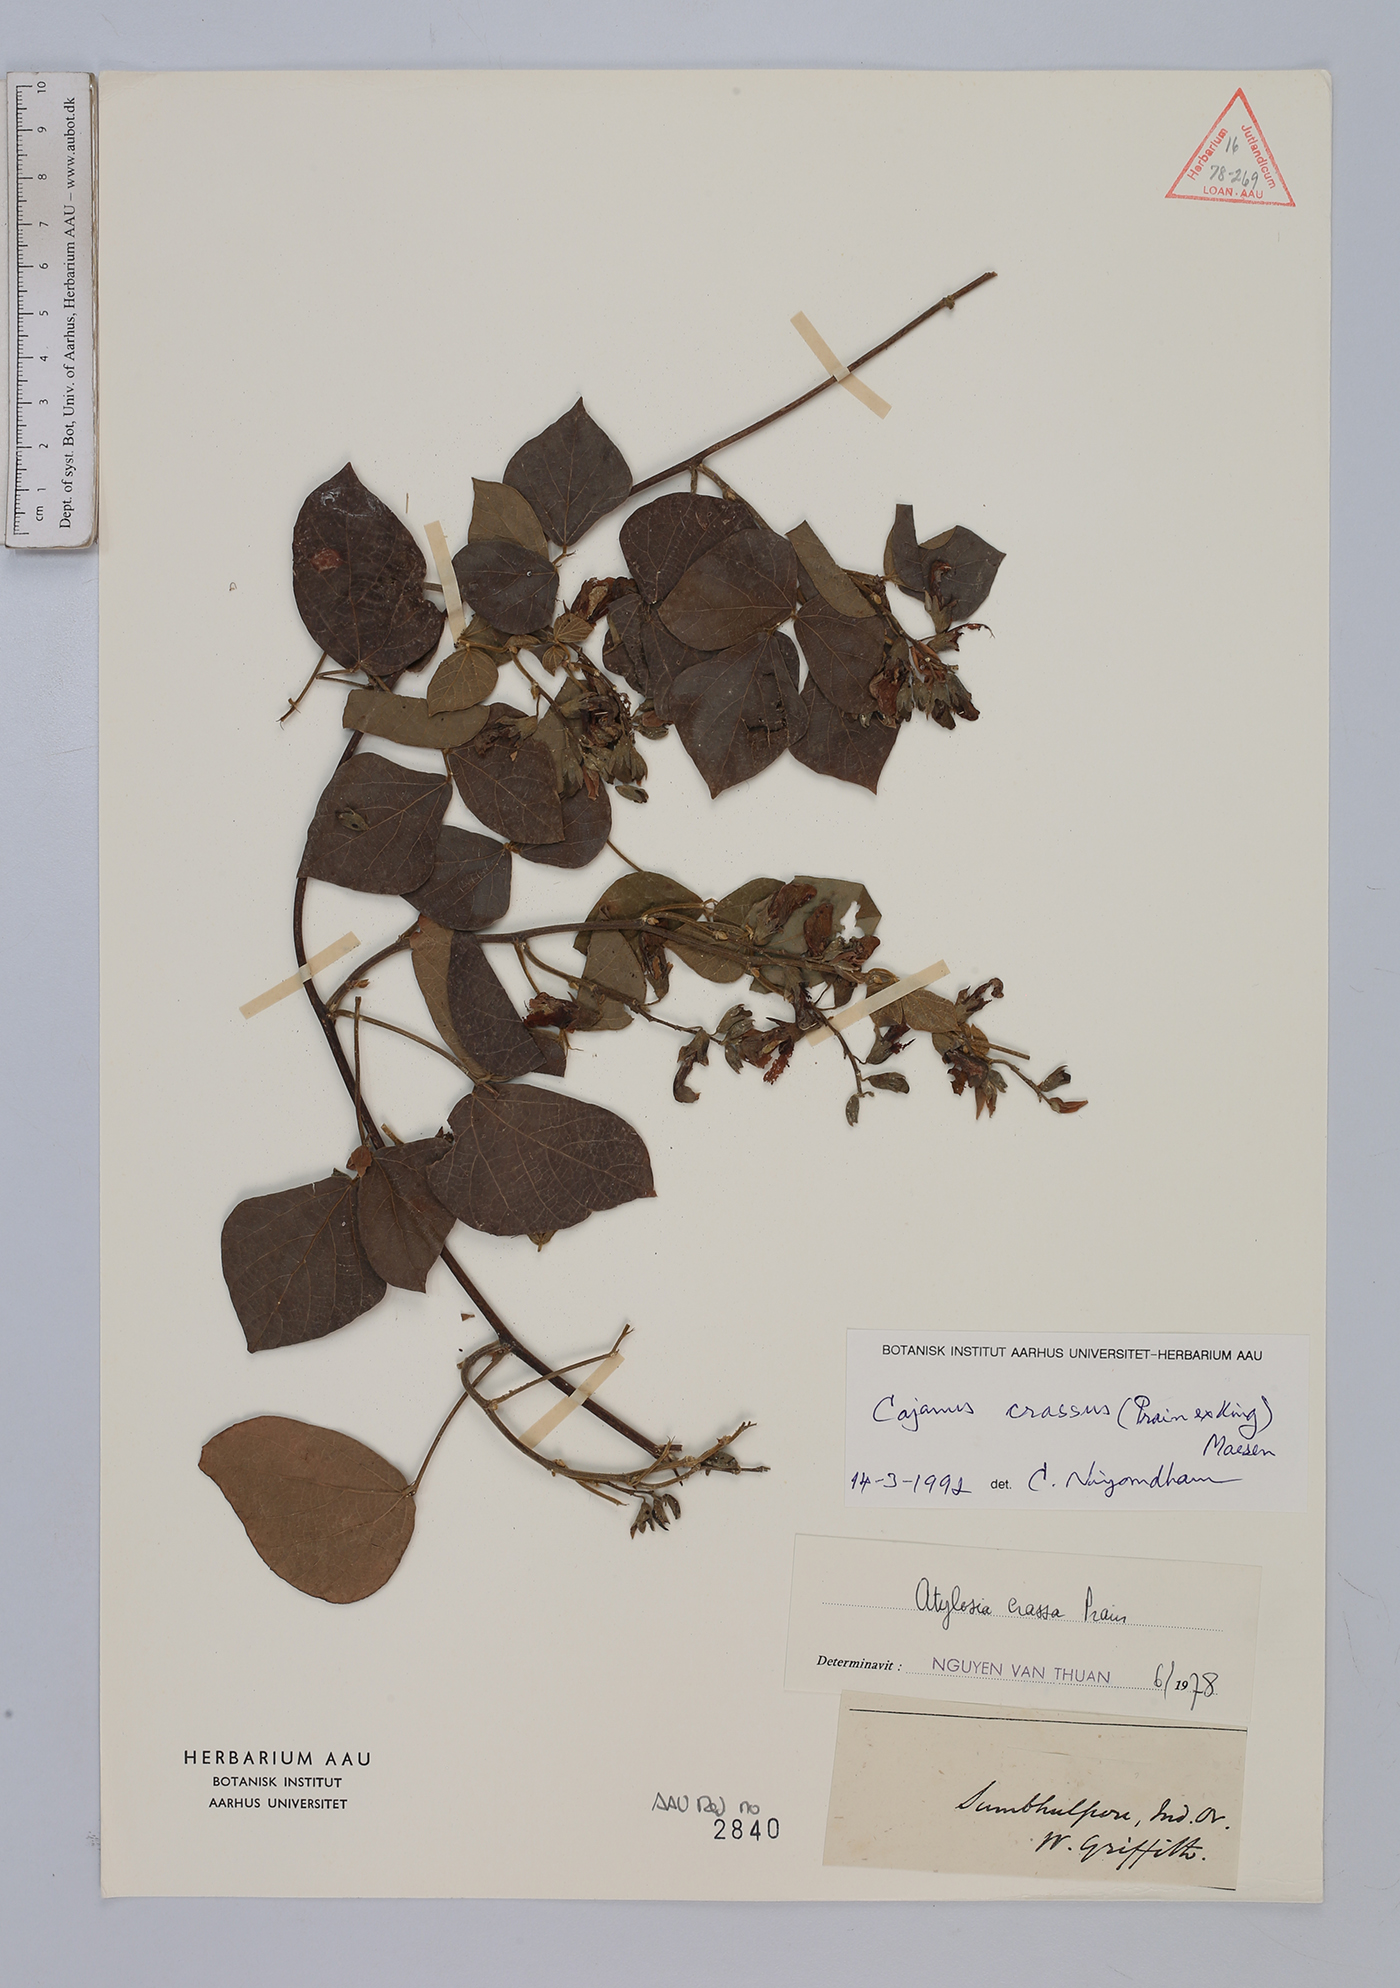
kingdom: Plantae
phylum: Tracheophyta
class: Magnoliopsida
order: Fabales
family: Fabaceae
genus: Cajanus
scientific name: Cajanus crassus
